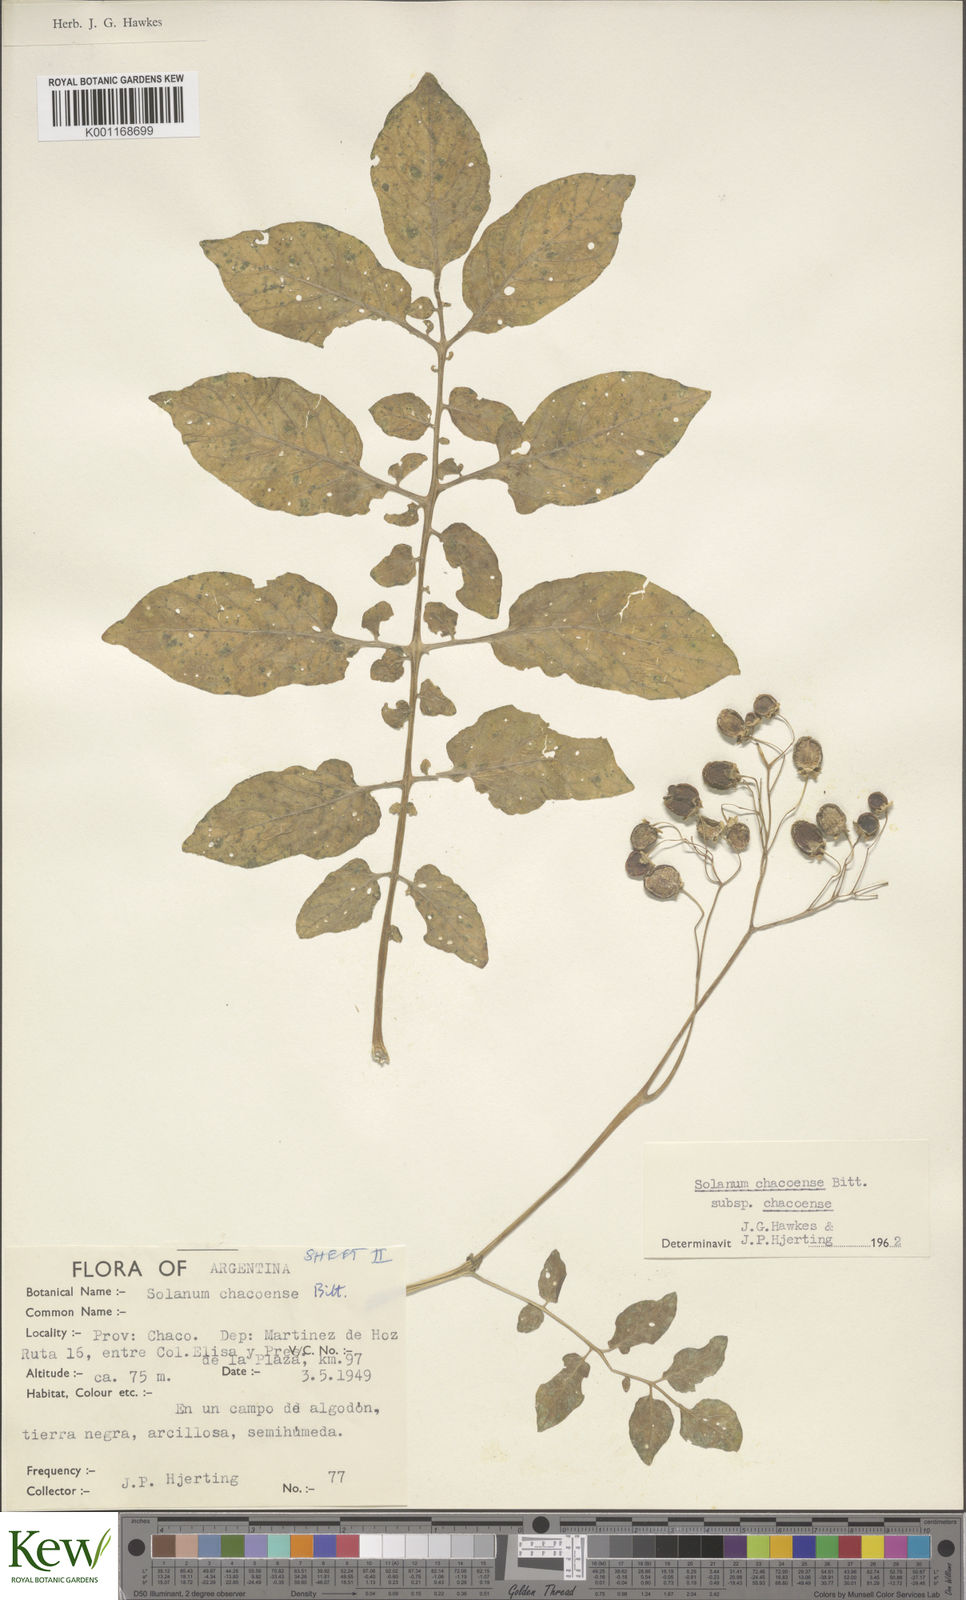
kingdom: Plantae
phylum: Tracheophyta
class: Magnoliopsida
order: Solanales
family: Solanaceae
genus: Solanum
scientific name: Solanum chacoense
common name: Chaco potato
